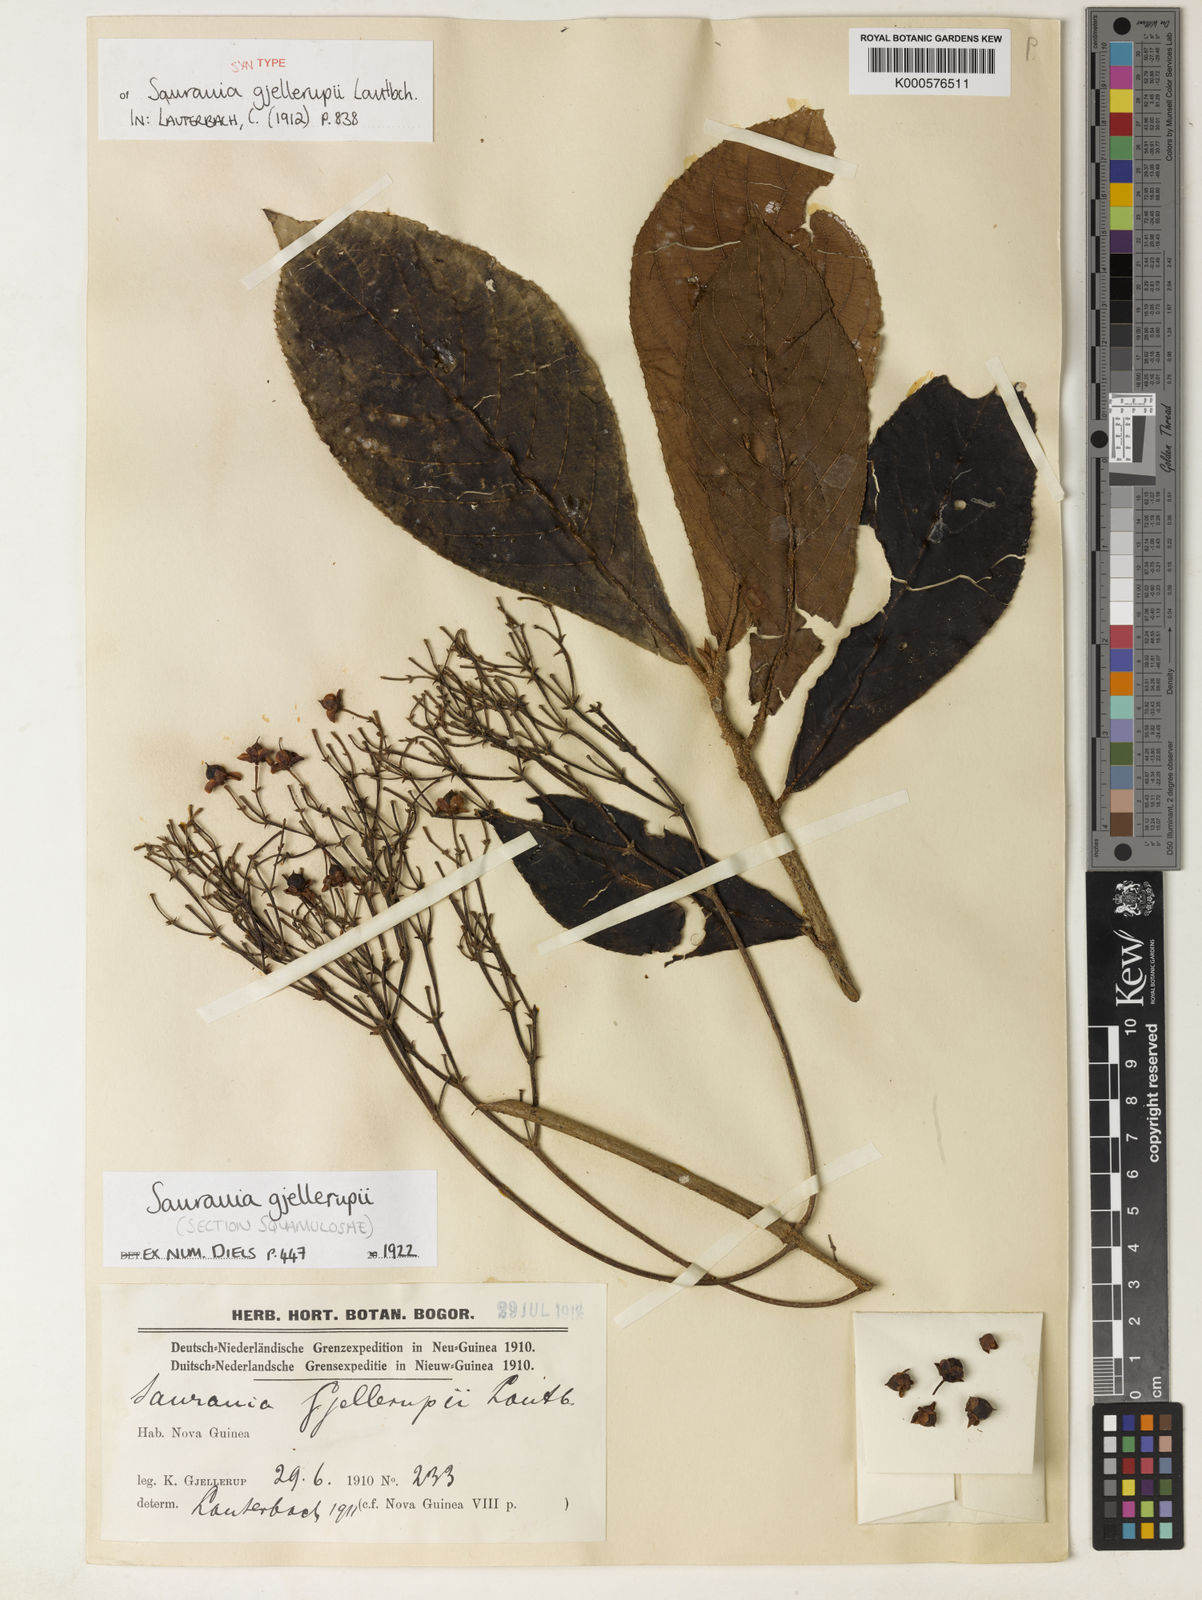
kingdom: Plantae
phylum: Tracheophyta
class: Magnoliopsida
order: Ericales
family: Actinidiaceae
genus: Saurauia
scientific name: Saurauia gjellerupii
